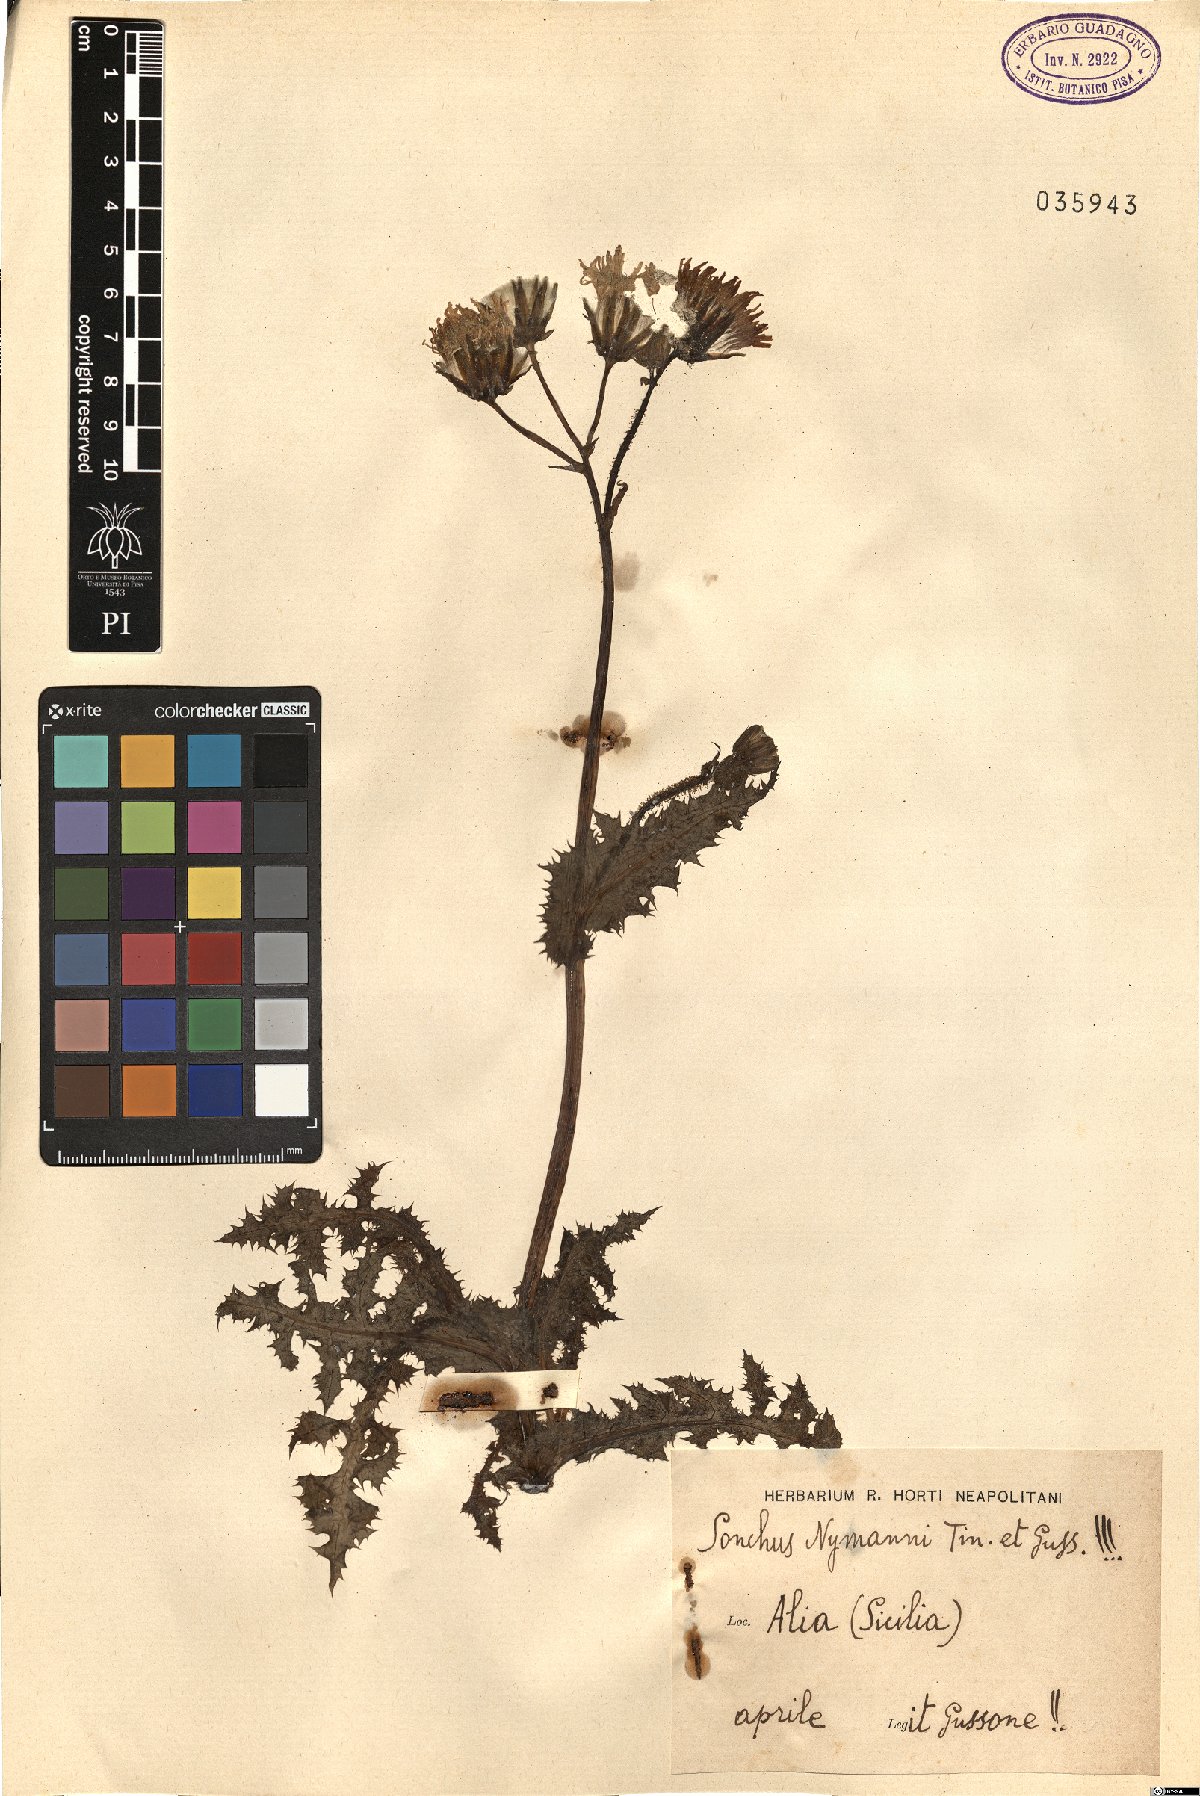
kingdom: Plantae
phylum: Tracheophyta
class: Magnoliopsida
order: Asterales
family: Asteraceae
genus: Sonchus
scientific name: Sonchus asper
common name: Prickly sow-thistle
